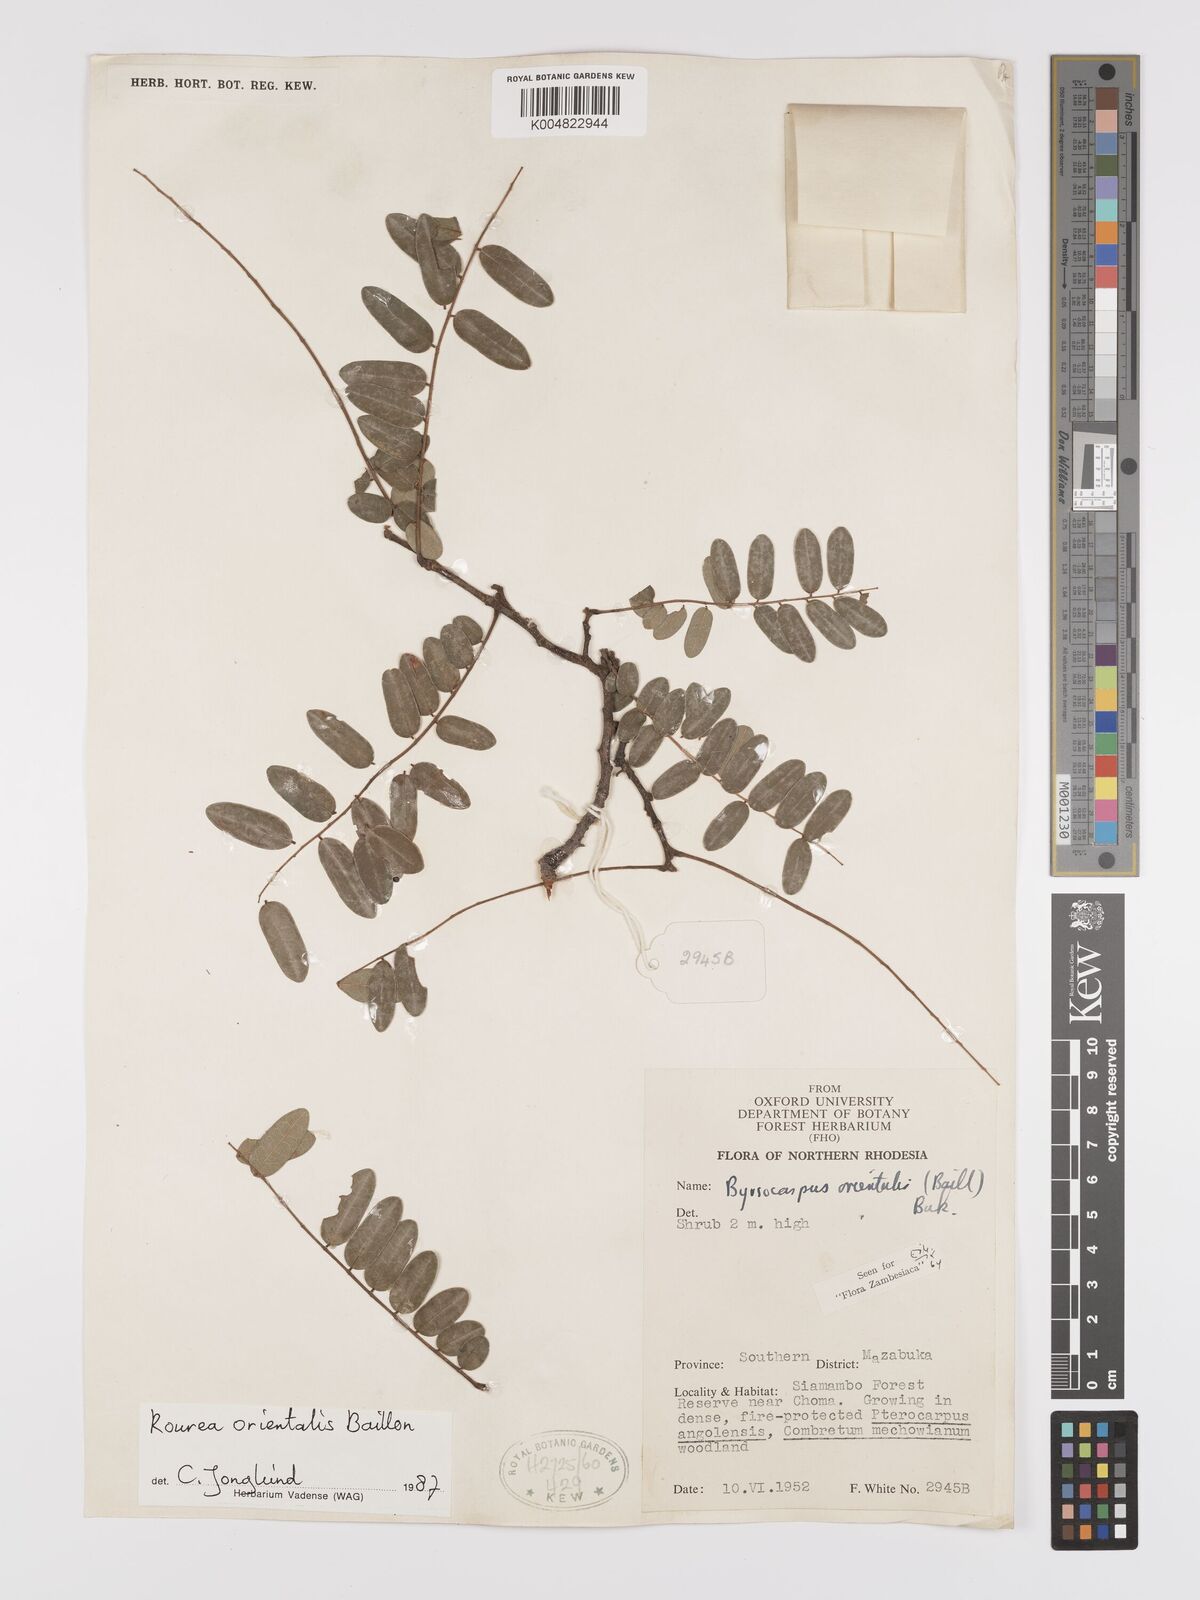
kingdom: Plantae
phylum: Tracheophyta
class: Magnoliopsida
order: Oxalidales
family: Connaraceae
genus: Rourea
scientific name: Rourea orientalis
